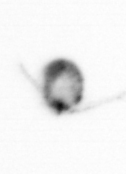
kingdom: Animalia
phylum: Arthropoda
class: Copepoda
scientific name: Copepoda
